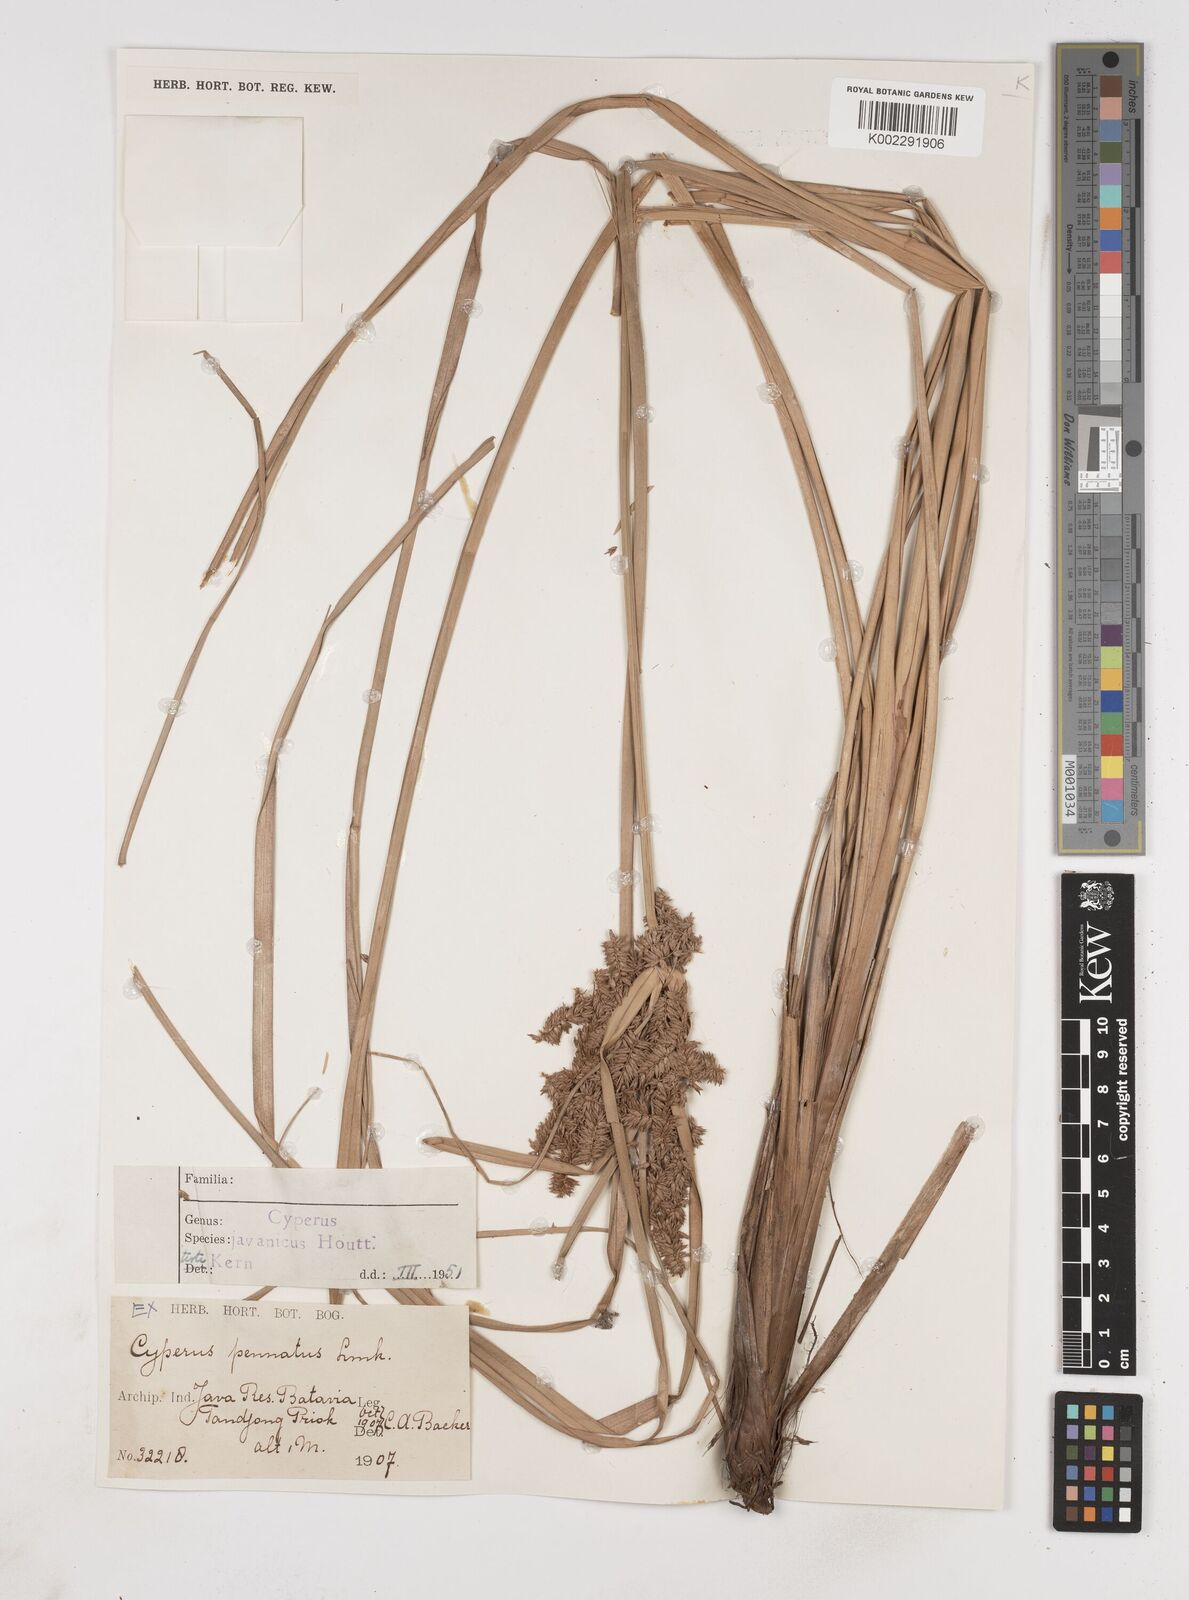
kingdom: Plantae
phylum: Tracheophyta
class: Liliopsida
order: Poales
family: Cyperaceae
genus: Cyperus
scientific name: Cyperus javanicus
